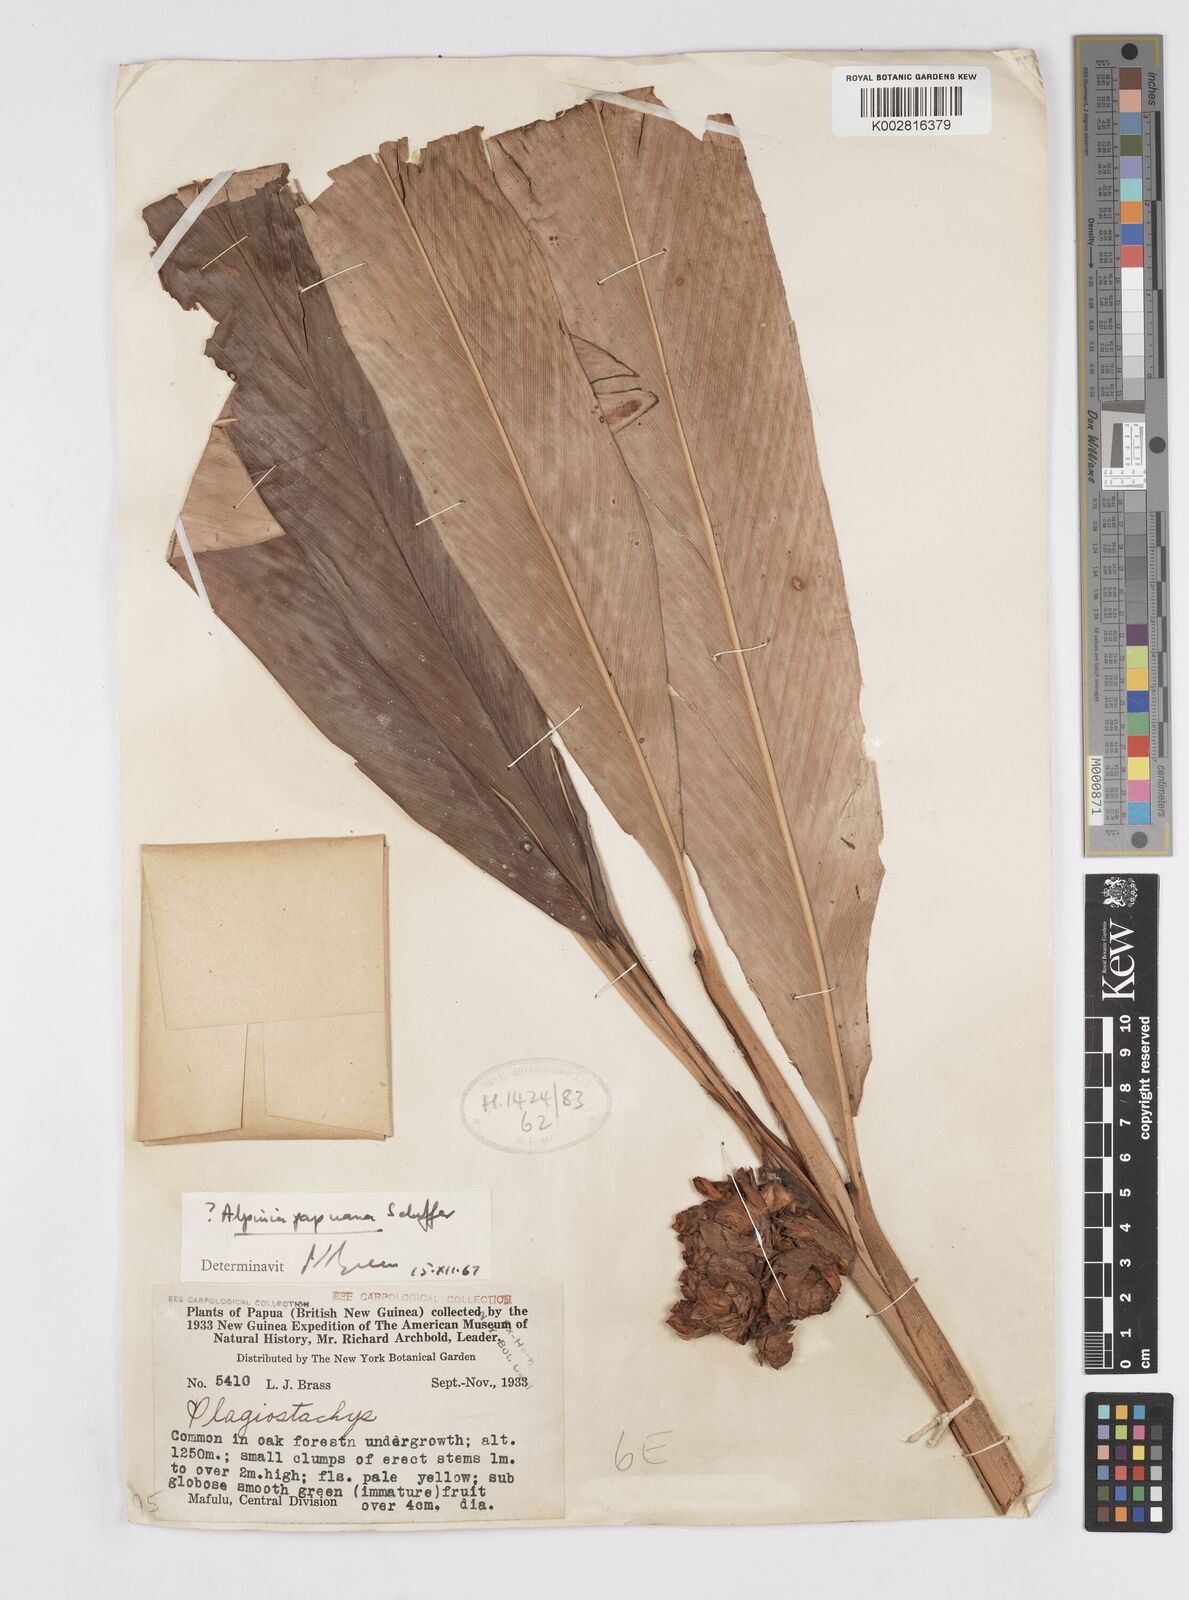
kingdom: Plantae
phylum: Tracheophyta
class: Liliopsida
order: Zingiberales
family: Zingiberaceae
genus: Alpinia
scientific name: Alpinia papuana
